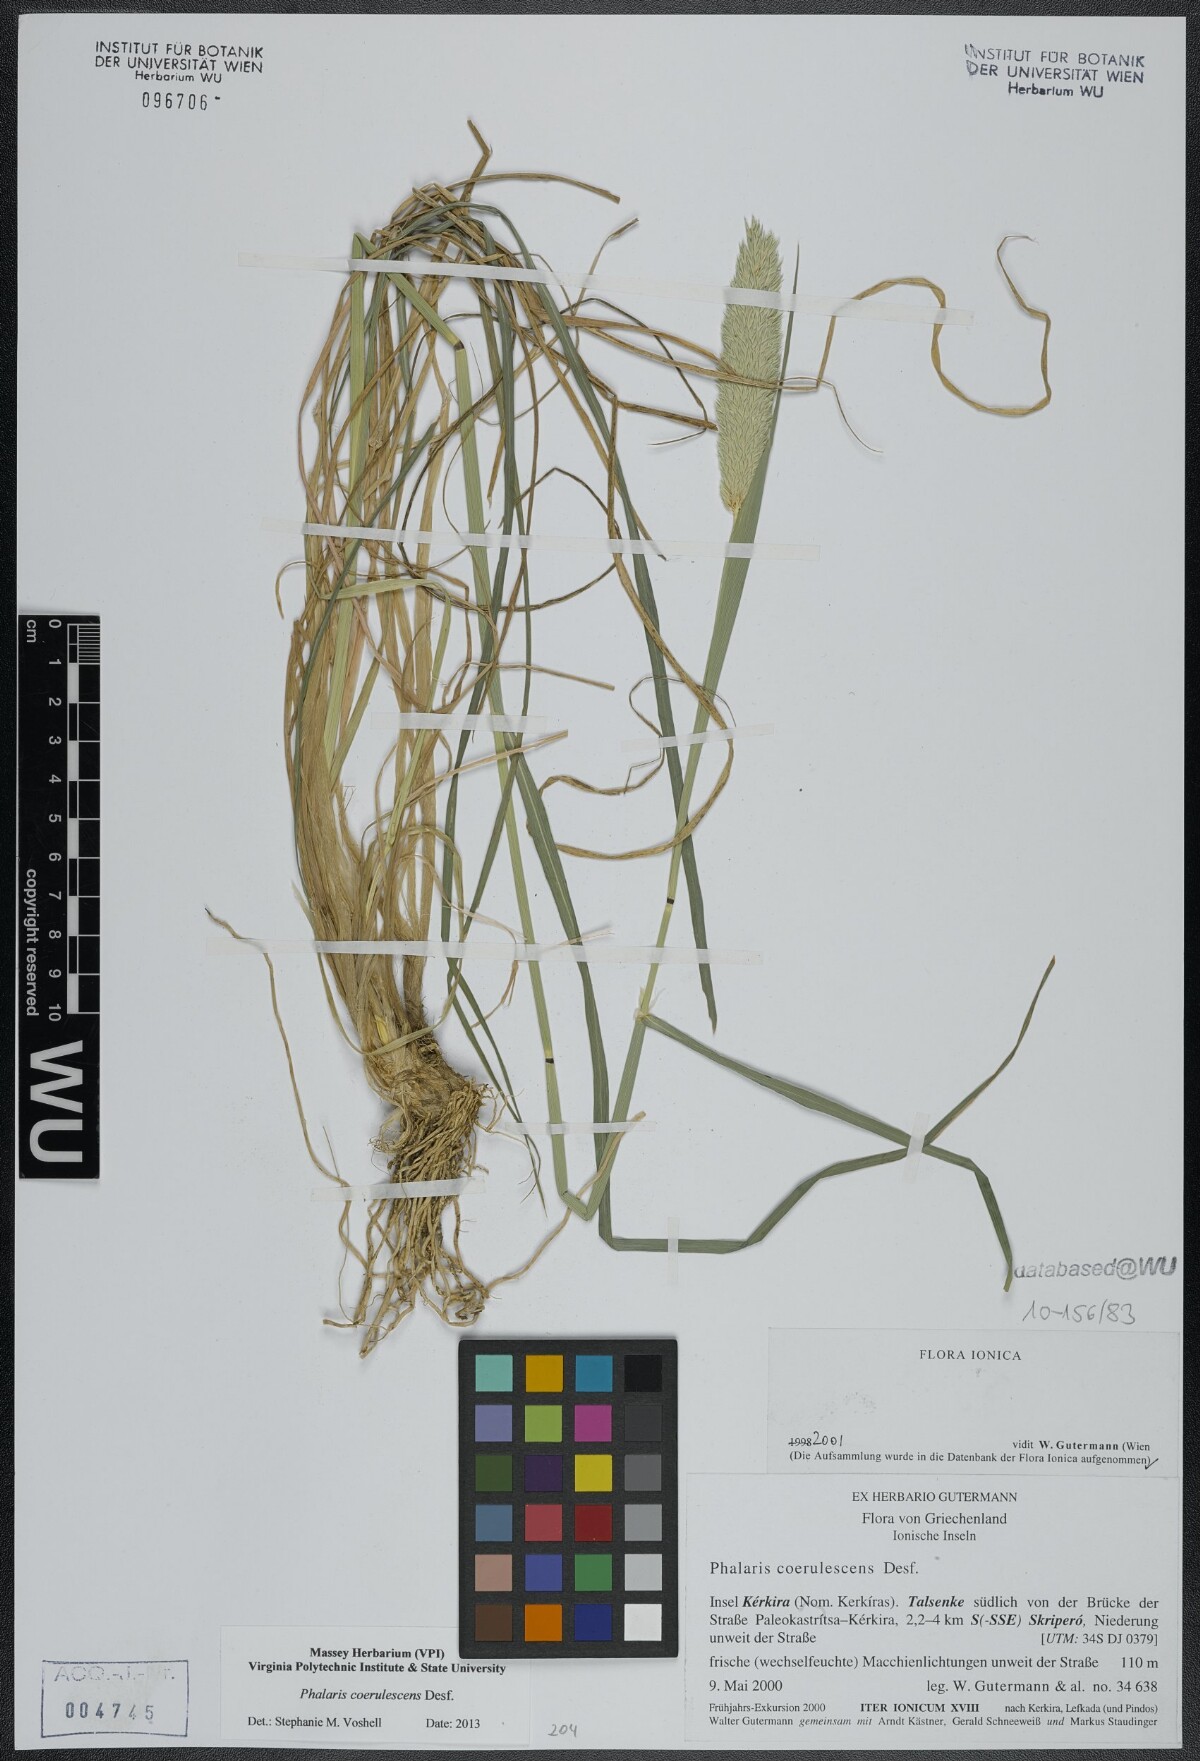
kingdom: Plantae
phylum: Tracheophyta
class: Liliopsida
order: Poales
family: Poaceae
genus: Phalaris
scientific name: Phalaris coerulescens
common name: Sunolgrass
